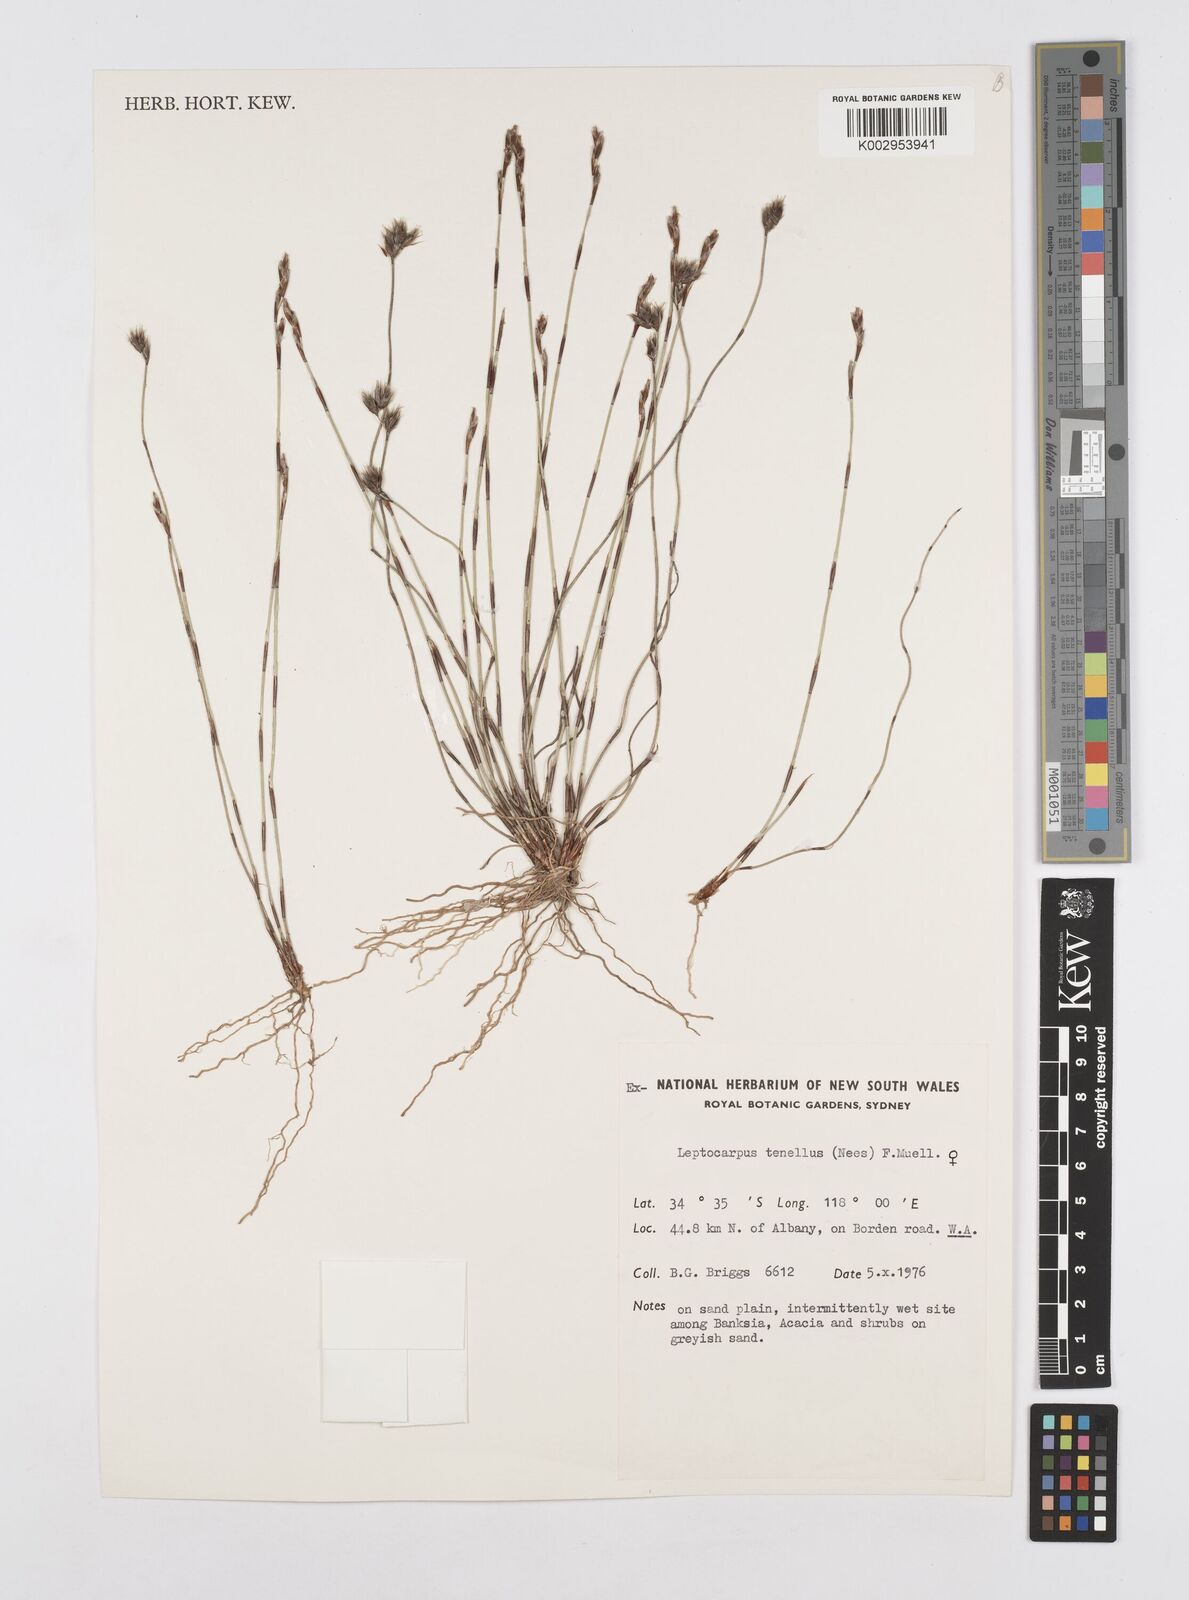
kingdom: Plantae
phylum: Tracheophyta
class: Liliopsida
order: Poales
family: Restionaceae
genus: Chaetanthus
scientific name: Chaetanthus tenellus
